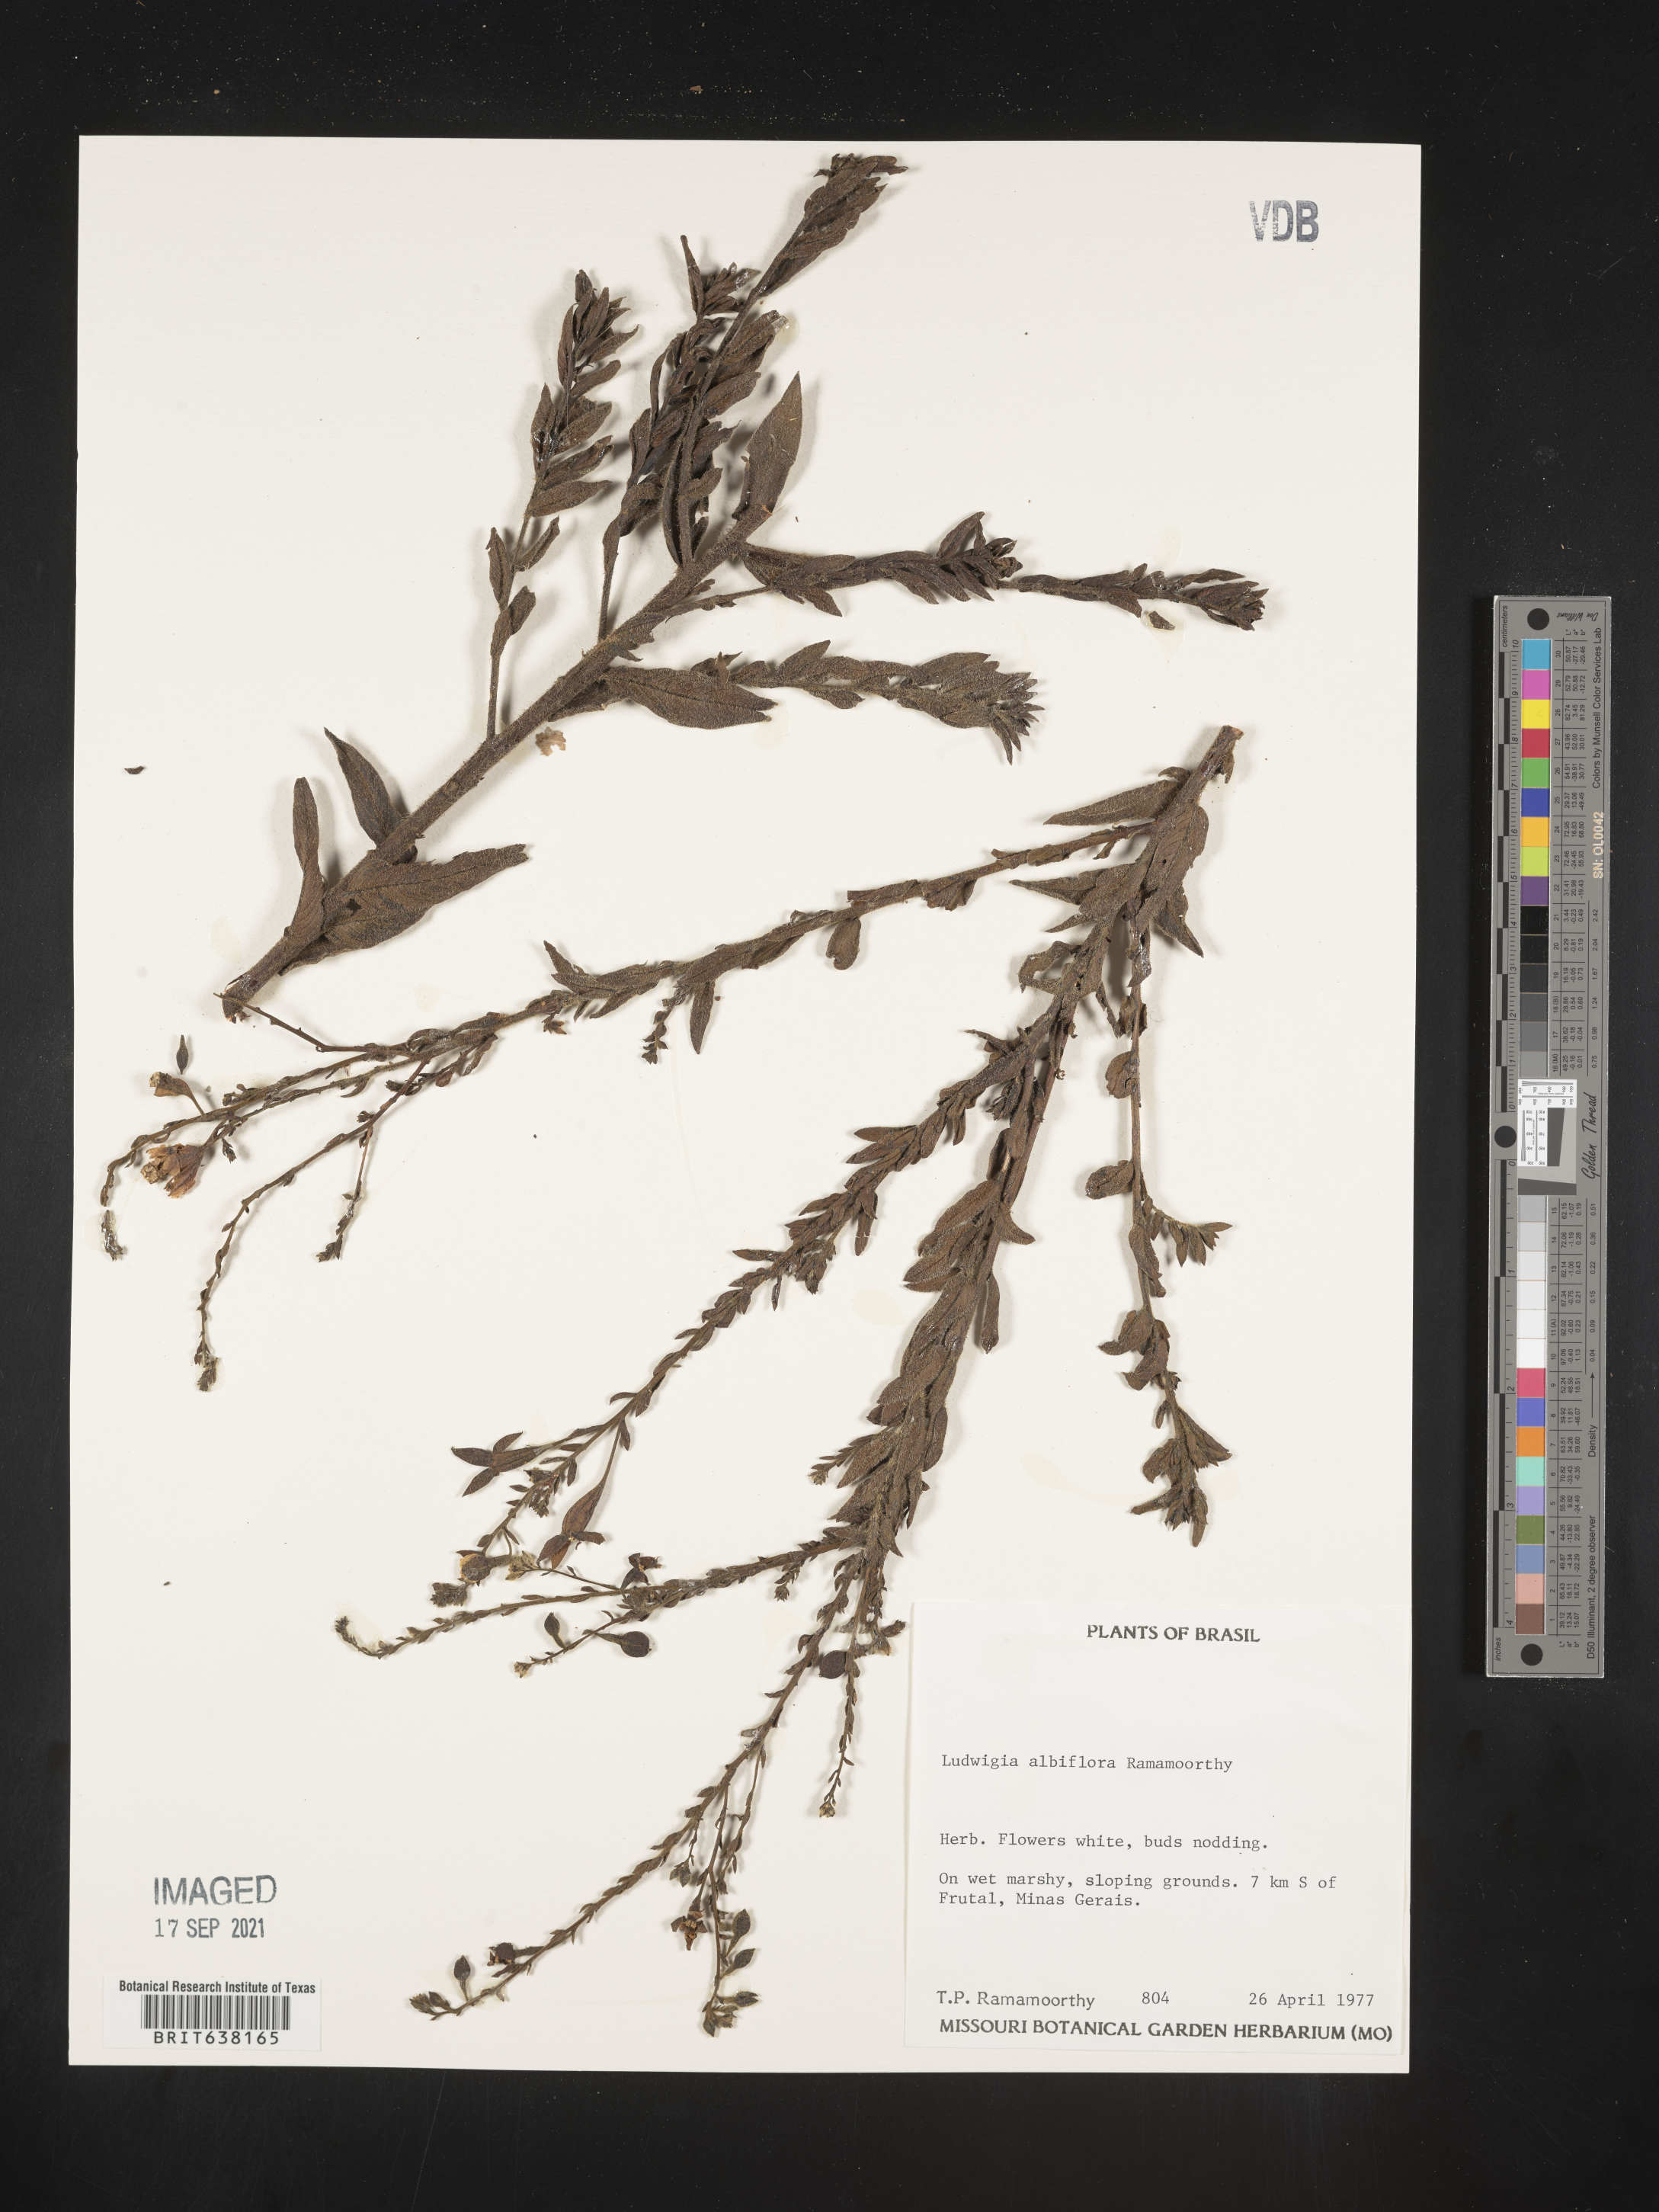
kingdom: Plantae
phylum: Tracheophyta
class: Magnoliopsida
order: Myrtales
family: Onagraceae
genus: Ludwigia
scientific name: Ludwigia
